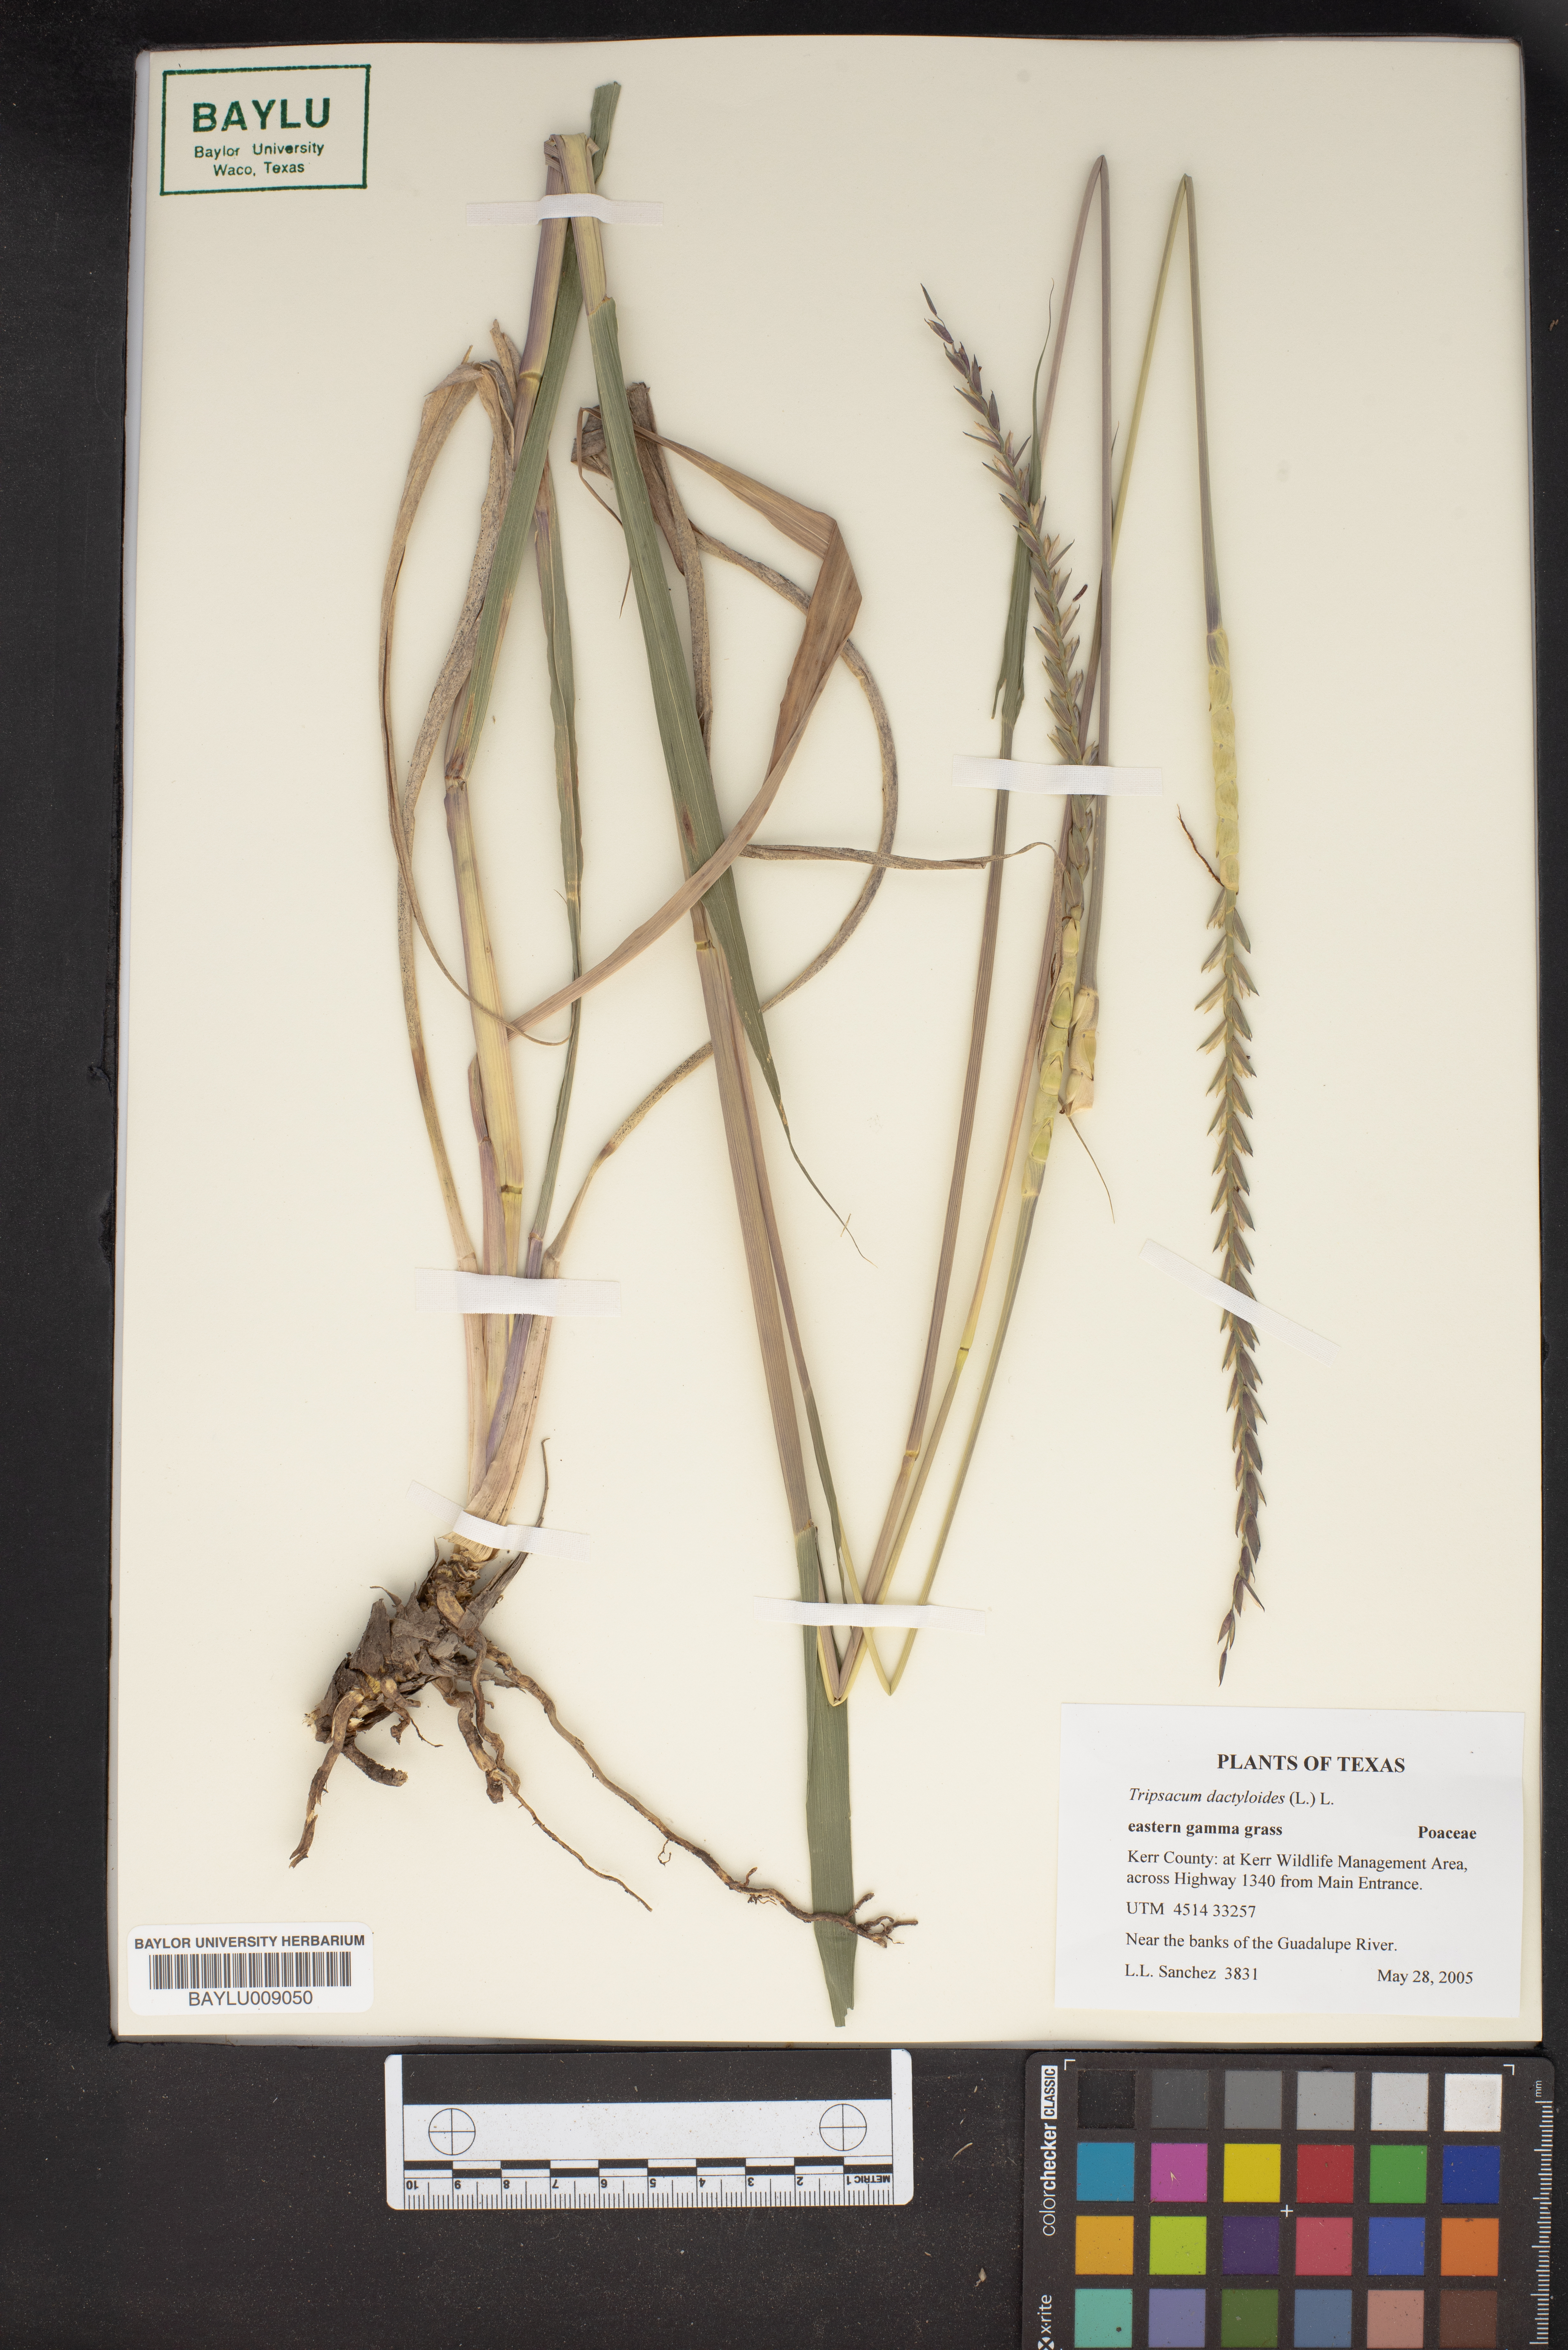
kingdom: Plantae
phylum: Tracheophyta
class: Liliopsida
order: Poales
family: Poaceae
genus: Tripsacum
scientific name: Tripsacum dactyloides
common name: Buffalo-grass
